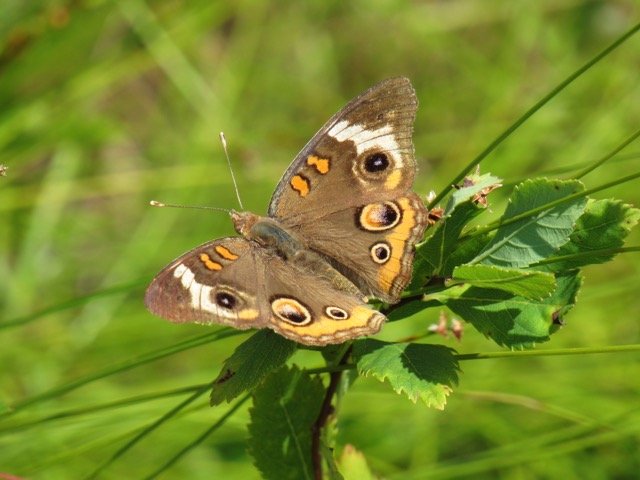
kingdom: Animalia
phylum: Arthropoda
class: Insecta
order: Lepidoptera
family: Nymphalidae
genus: Junonia
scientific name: Junonia coenia
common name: Common Buckeye
